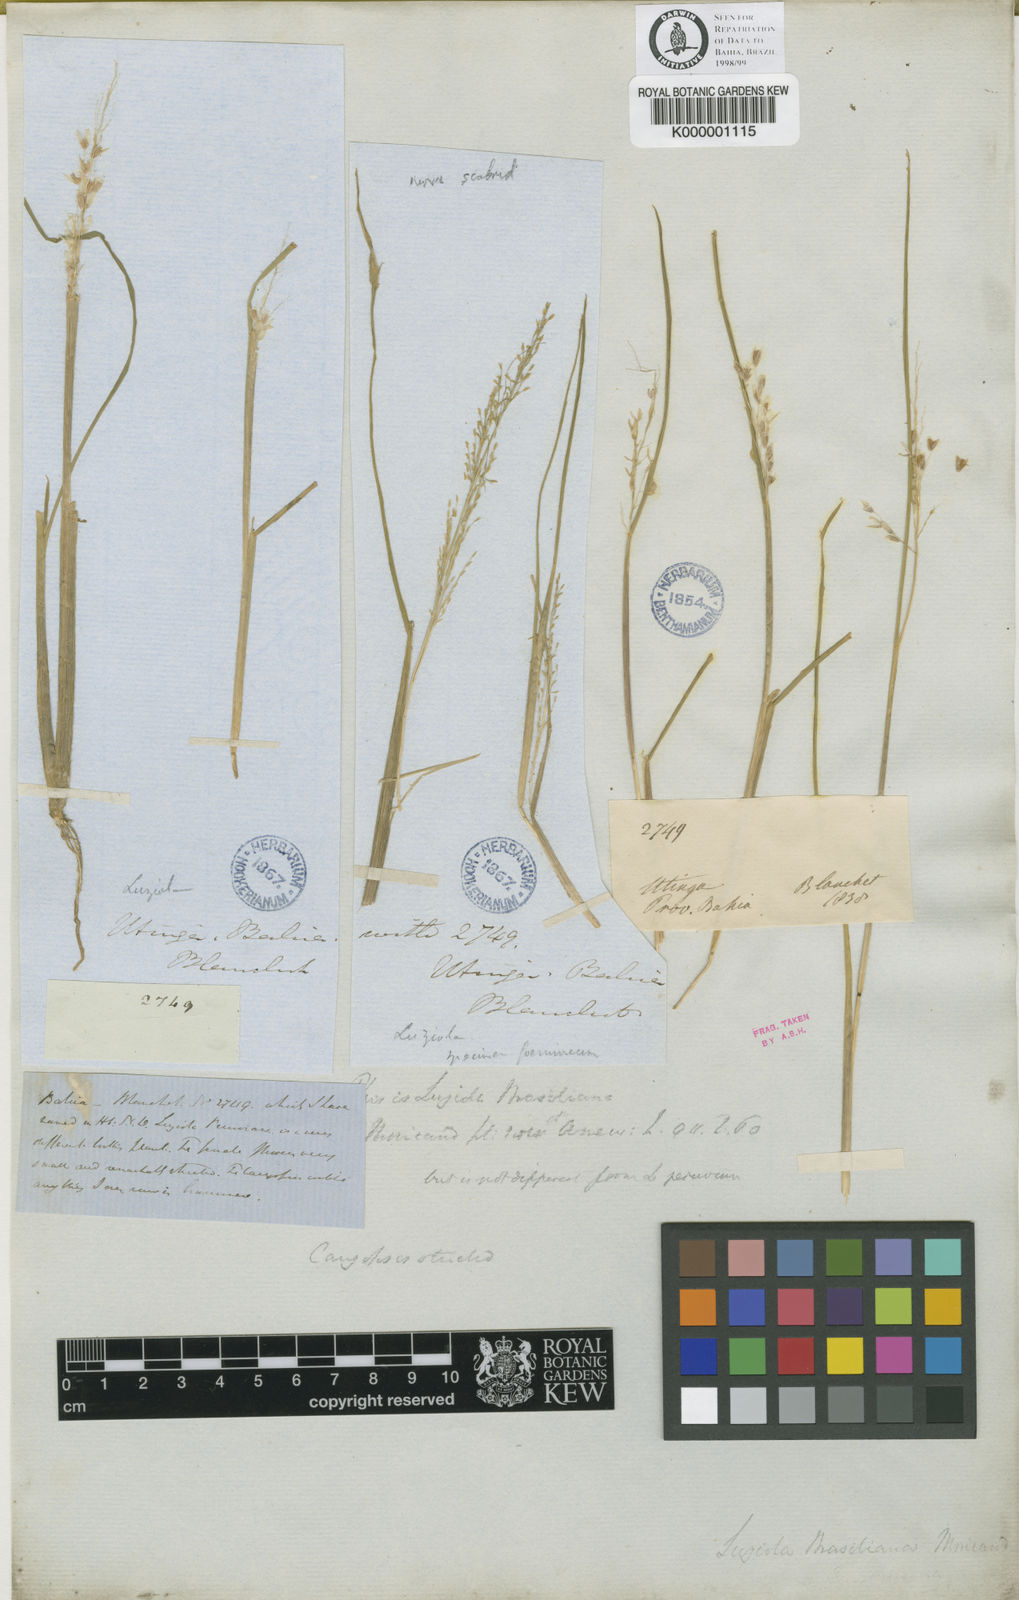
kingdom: Plantae
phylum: Tracheophyta
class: Liliopsida
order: Poales
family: Poaceae
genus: Luziola
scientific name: Luziola
